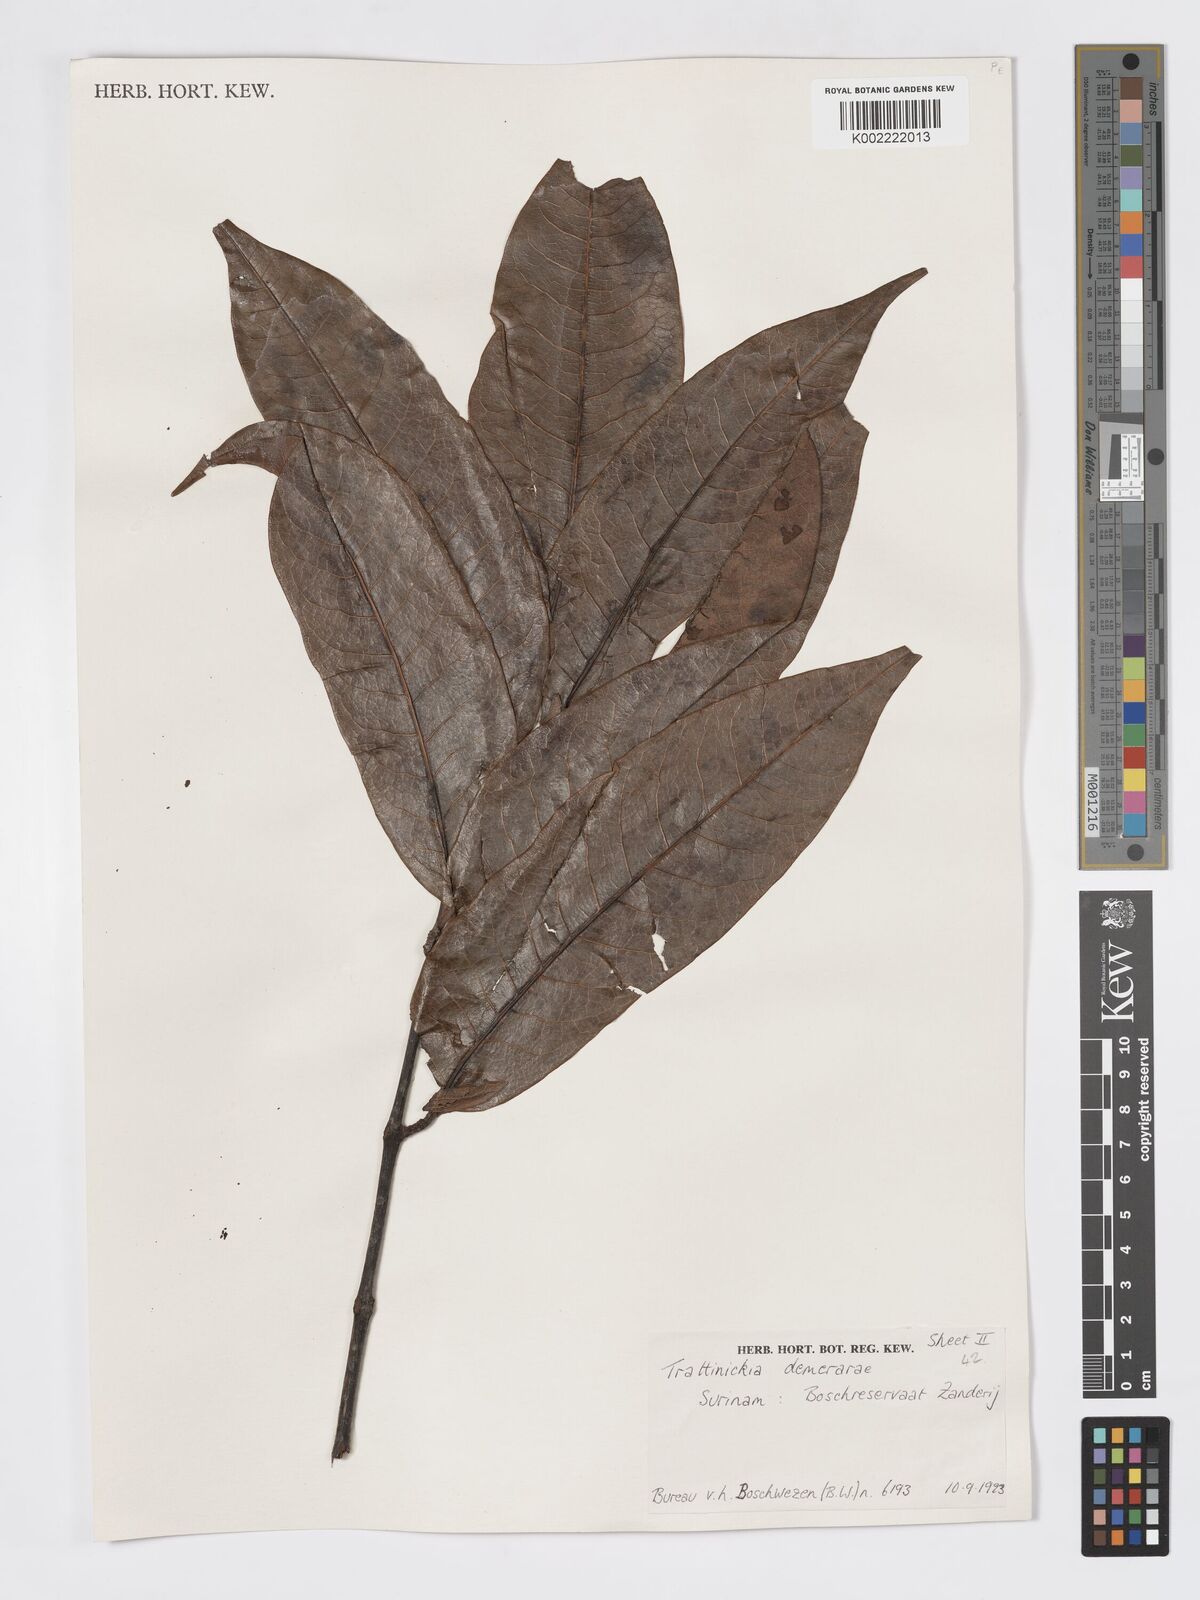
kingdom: Plantae
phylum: Tracheophyta
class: Magnoliopsida
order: Sapindales
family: Burseraceae
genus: Trattinnickia
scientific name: Trattinnickia demerarae
